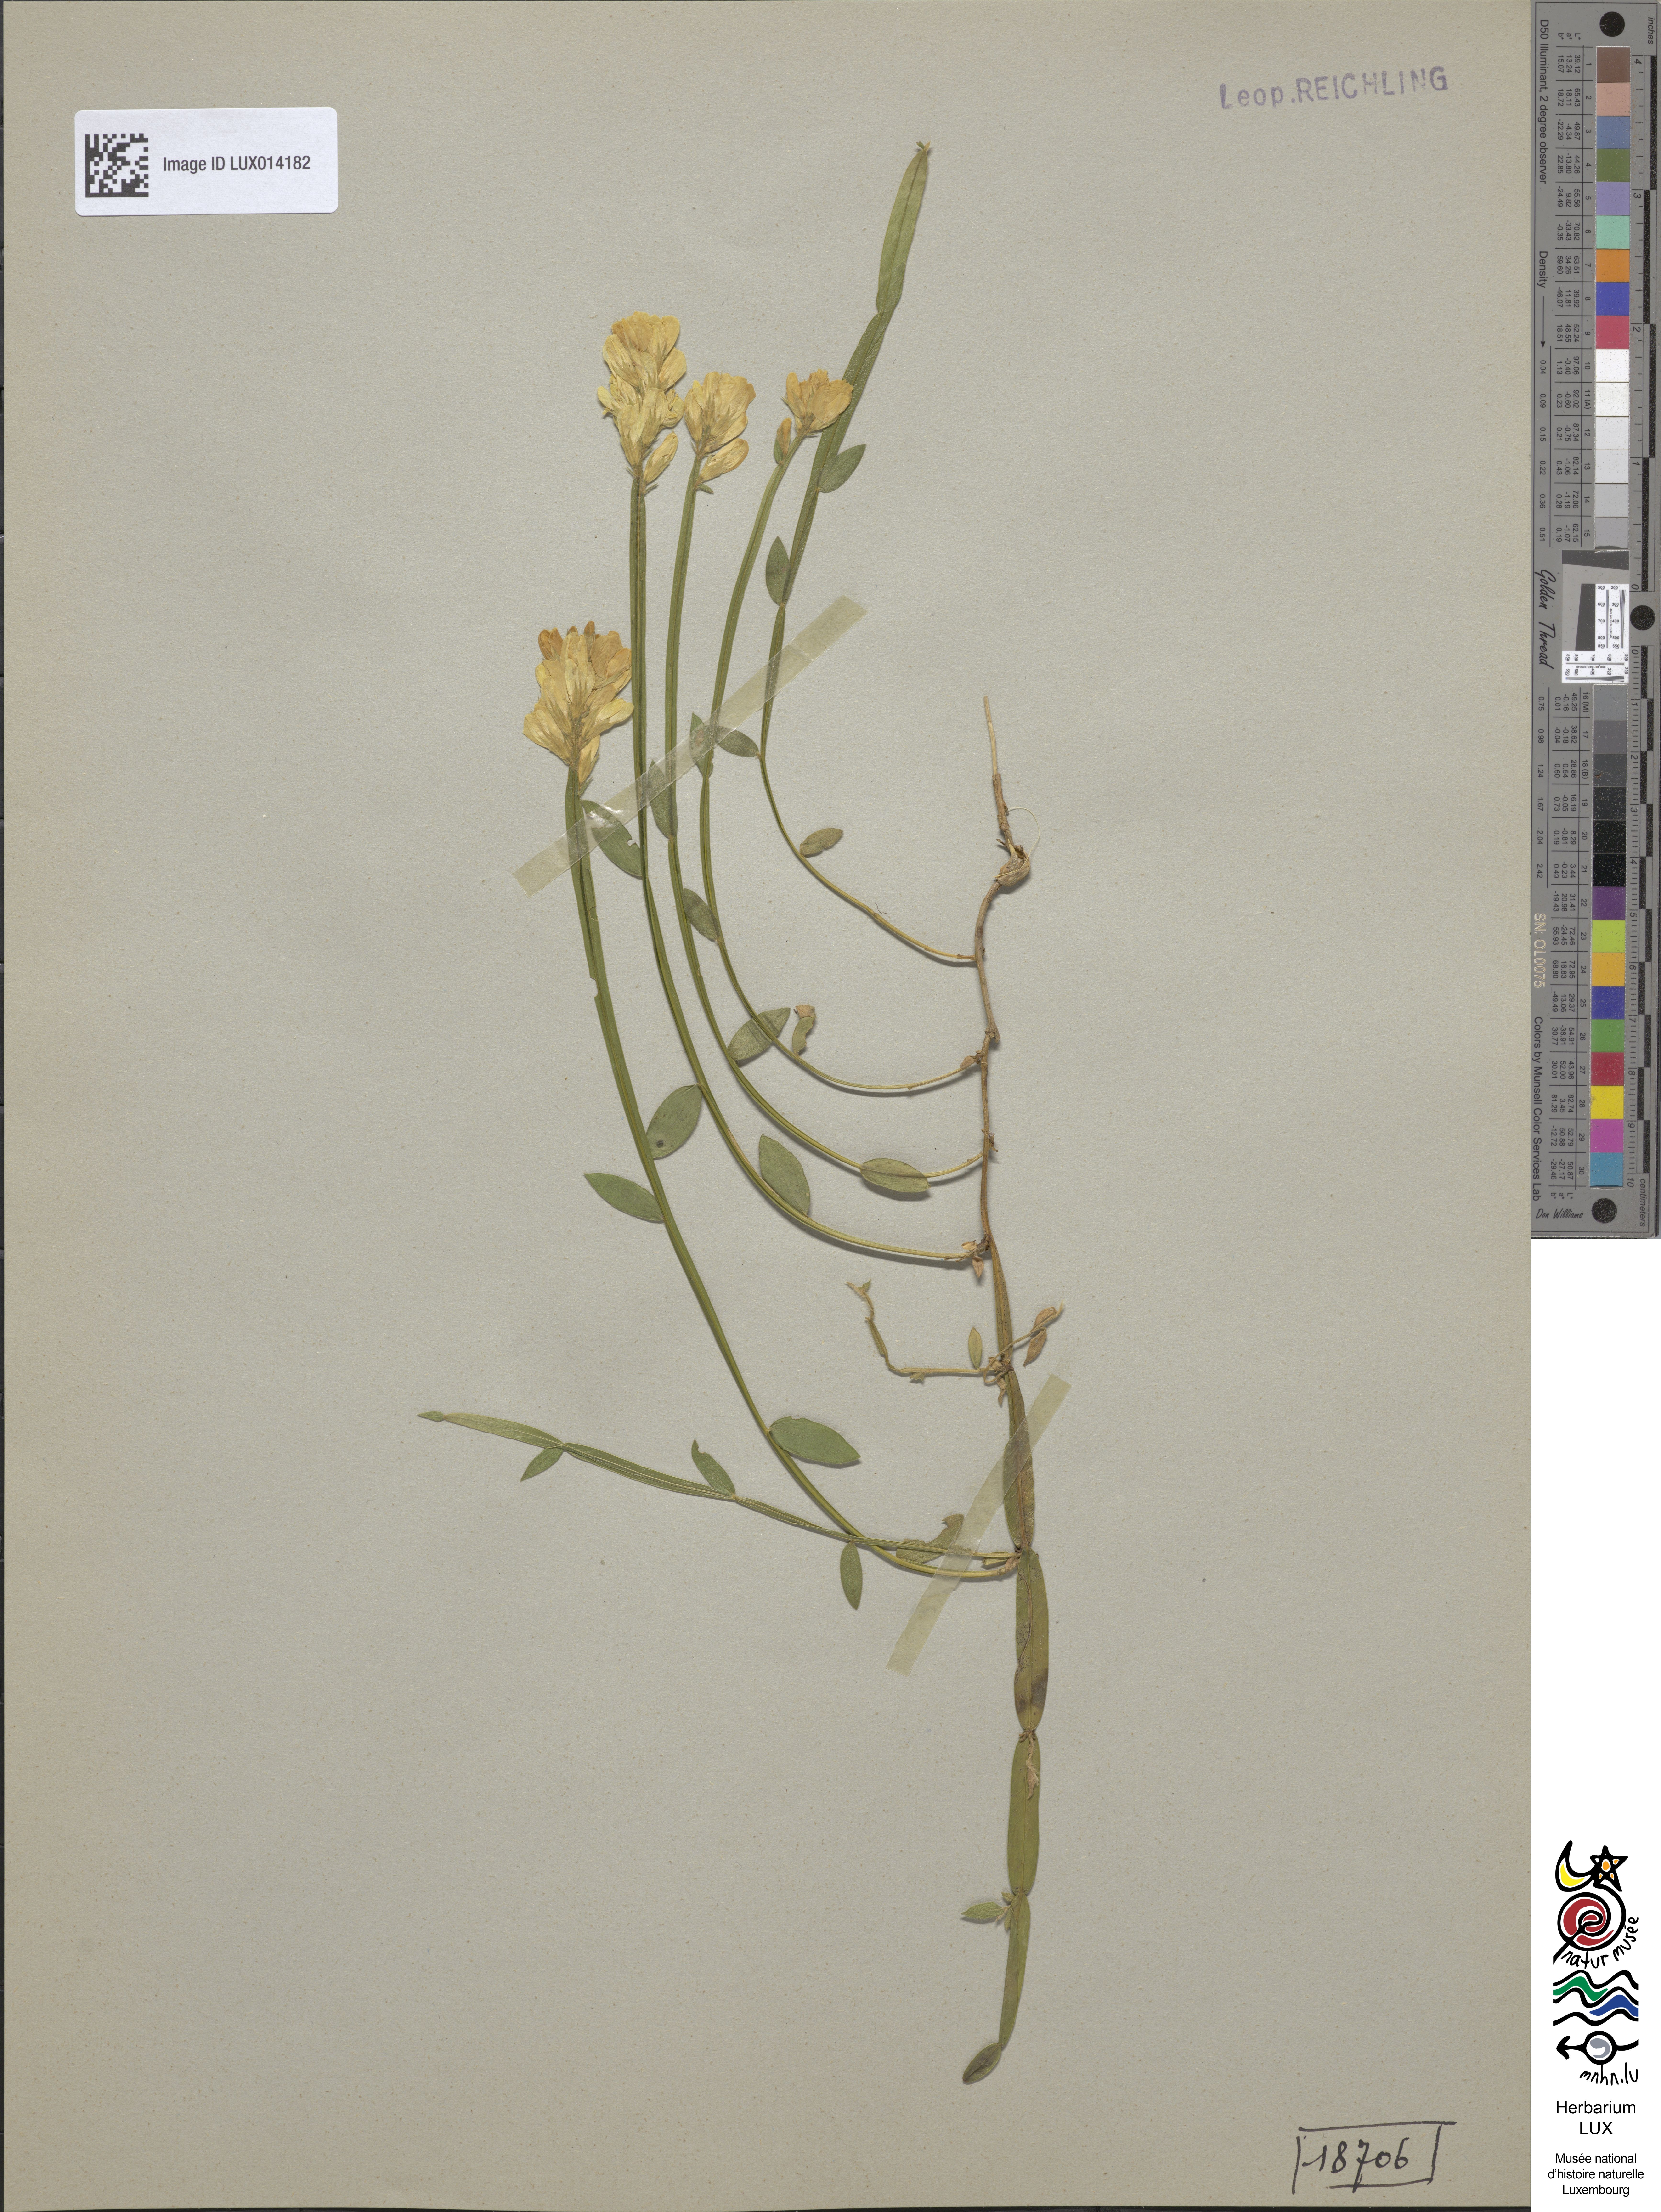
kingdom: Plantae
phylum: Tracheophyta
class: Magnoliopsida
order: Fabales
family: Fabaceae
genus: Genista
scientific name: Genista sagittalis
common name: Winged greenweed
